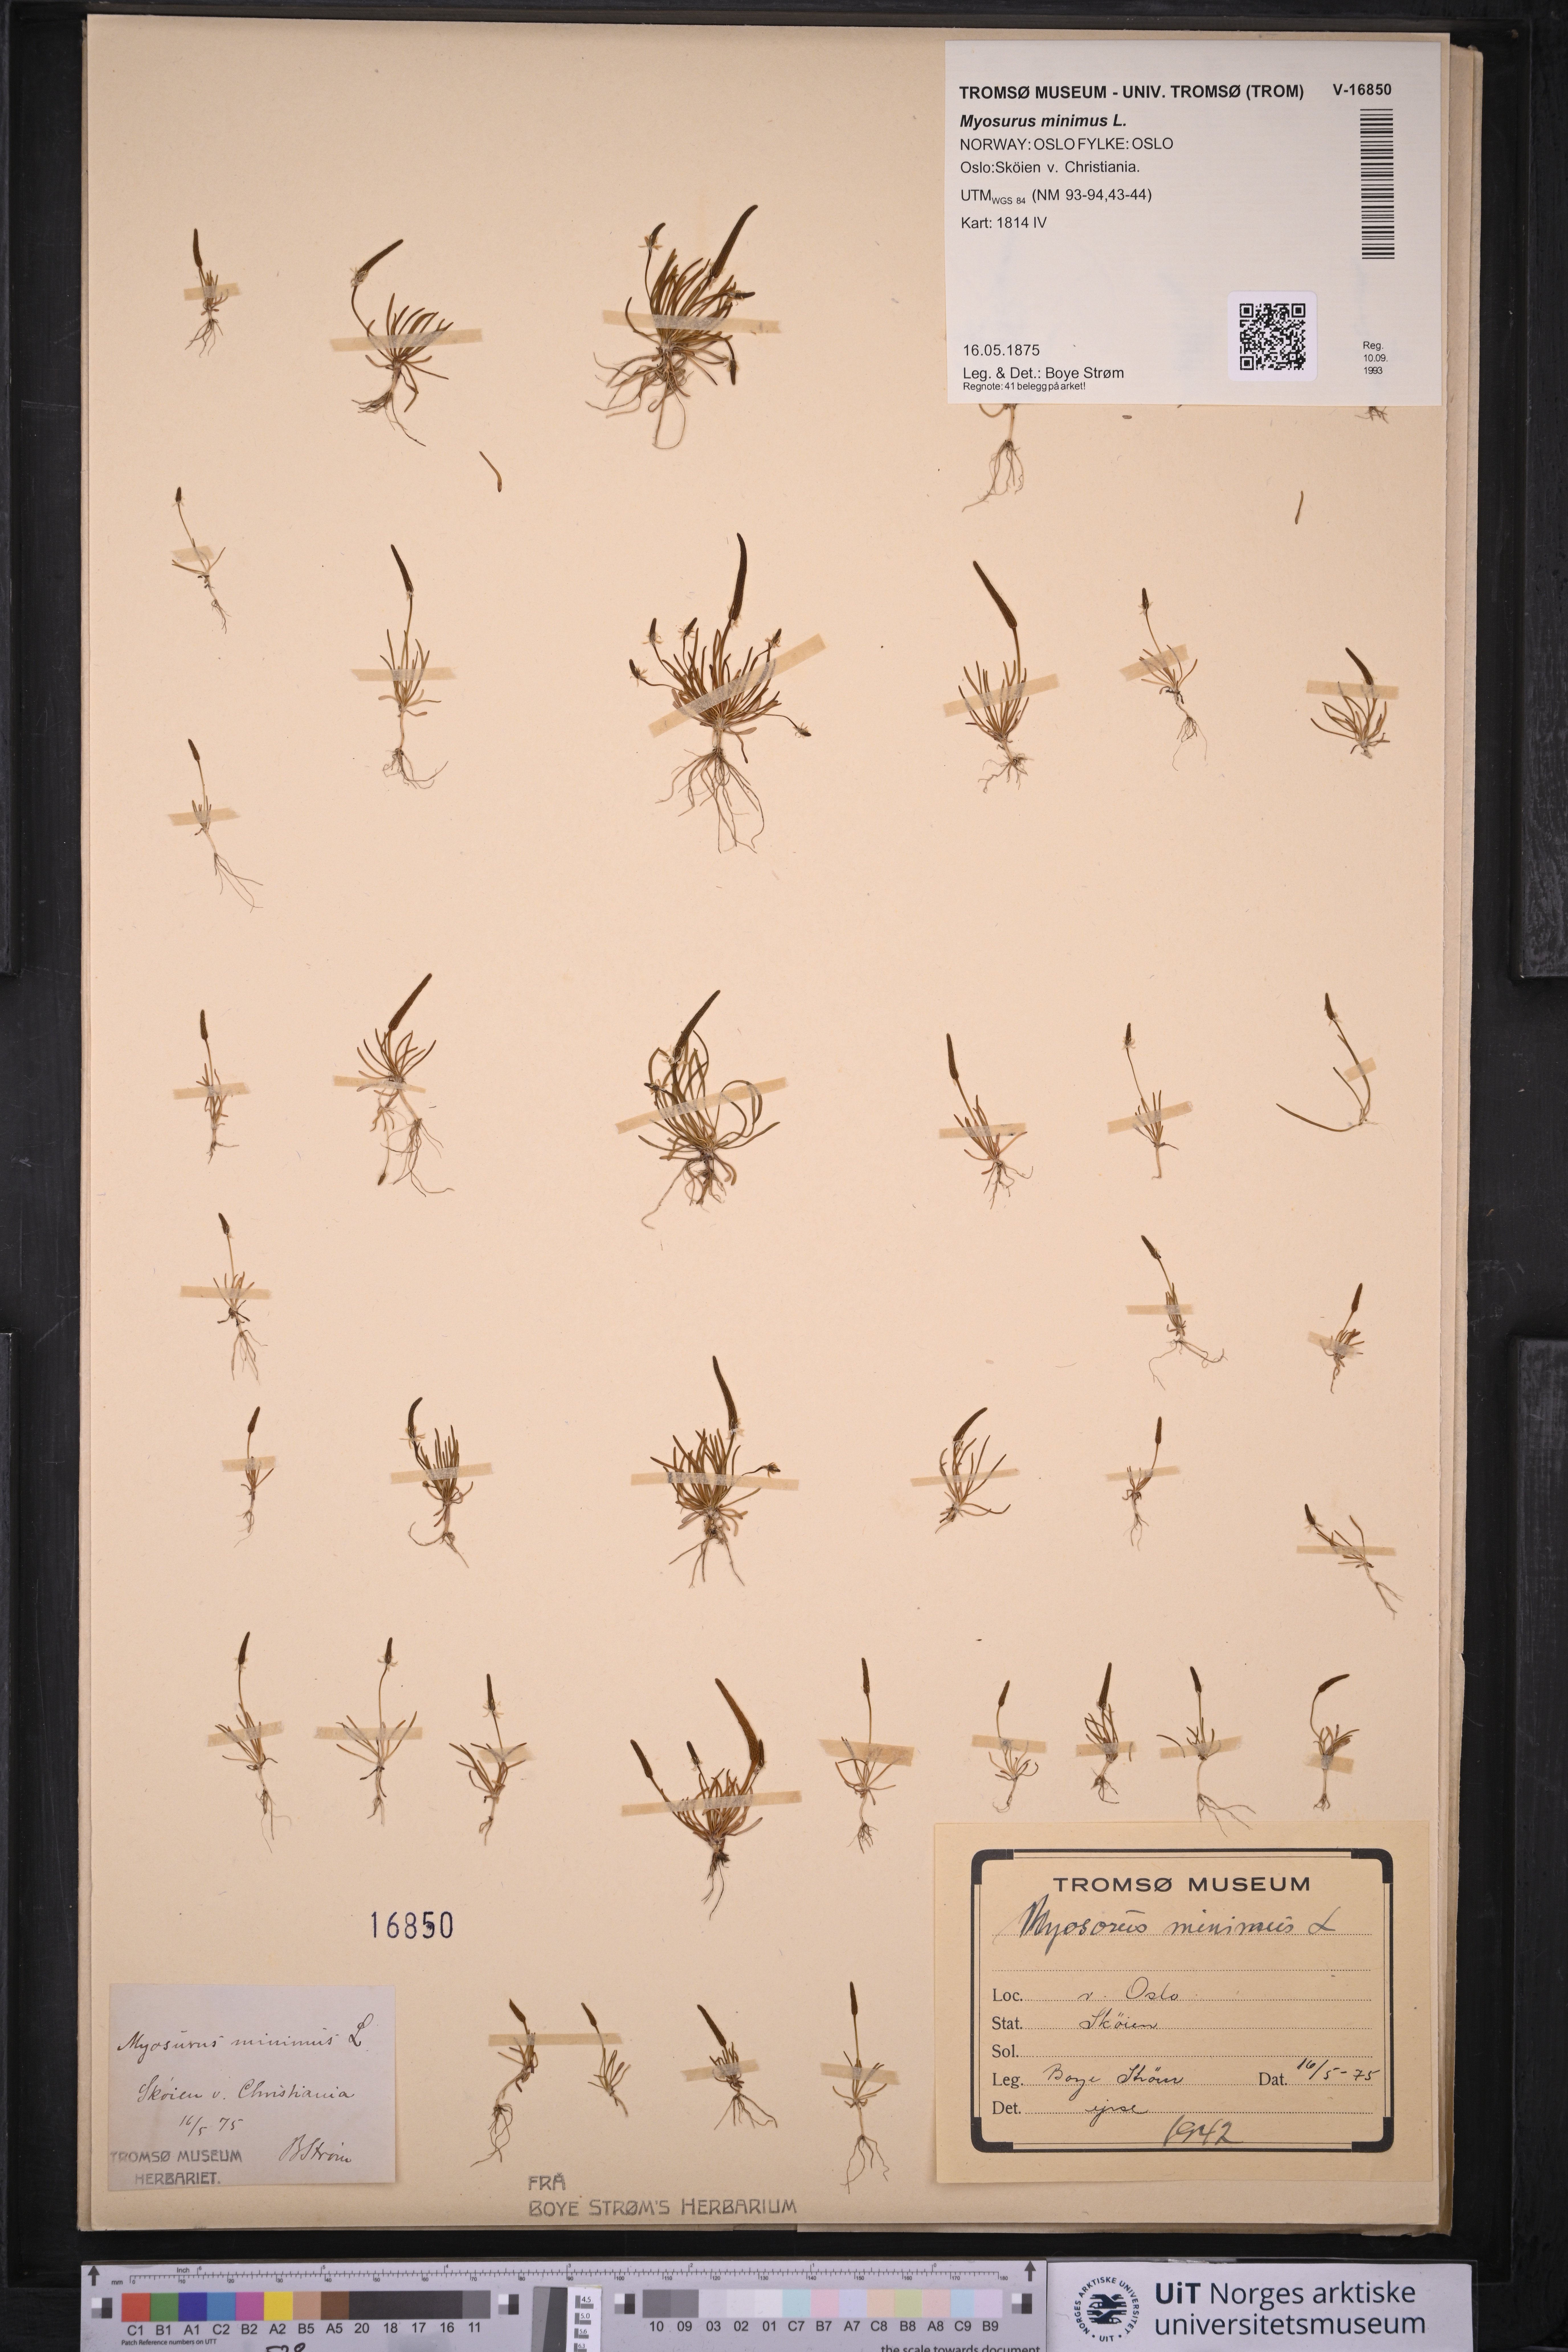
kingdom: Plantae
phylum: Tracheophyta
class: Magnoliopsida
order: Ranunculales
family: Ranunculaceae
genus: Myosurus
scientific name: Myosurus minimus
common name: Mousetail
